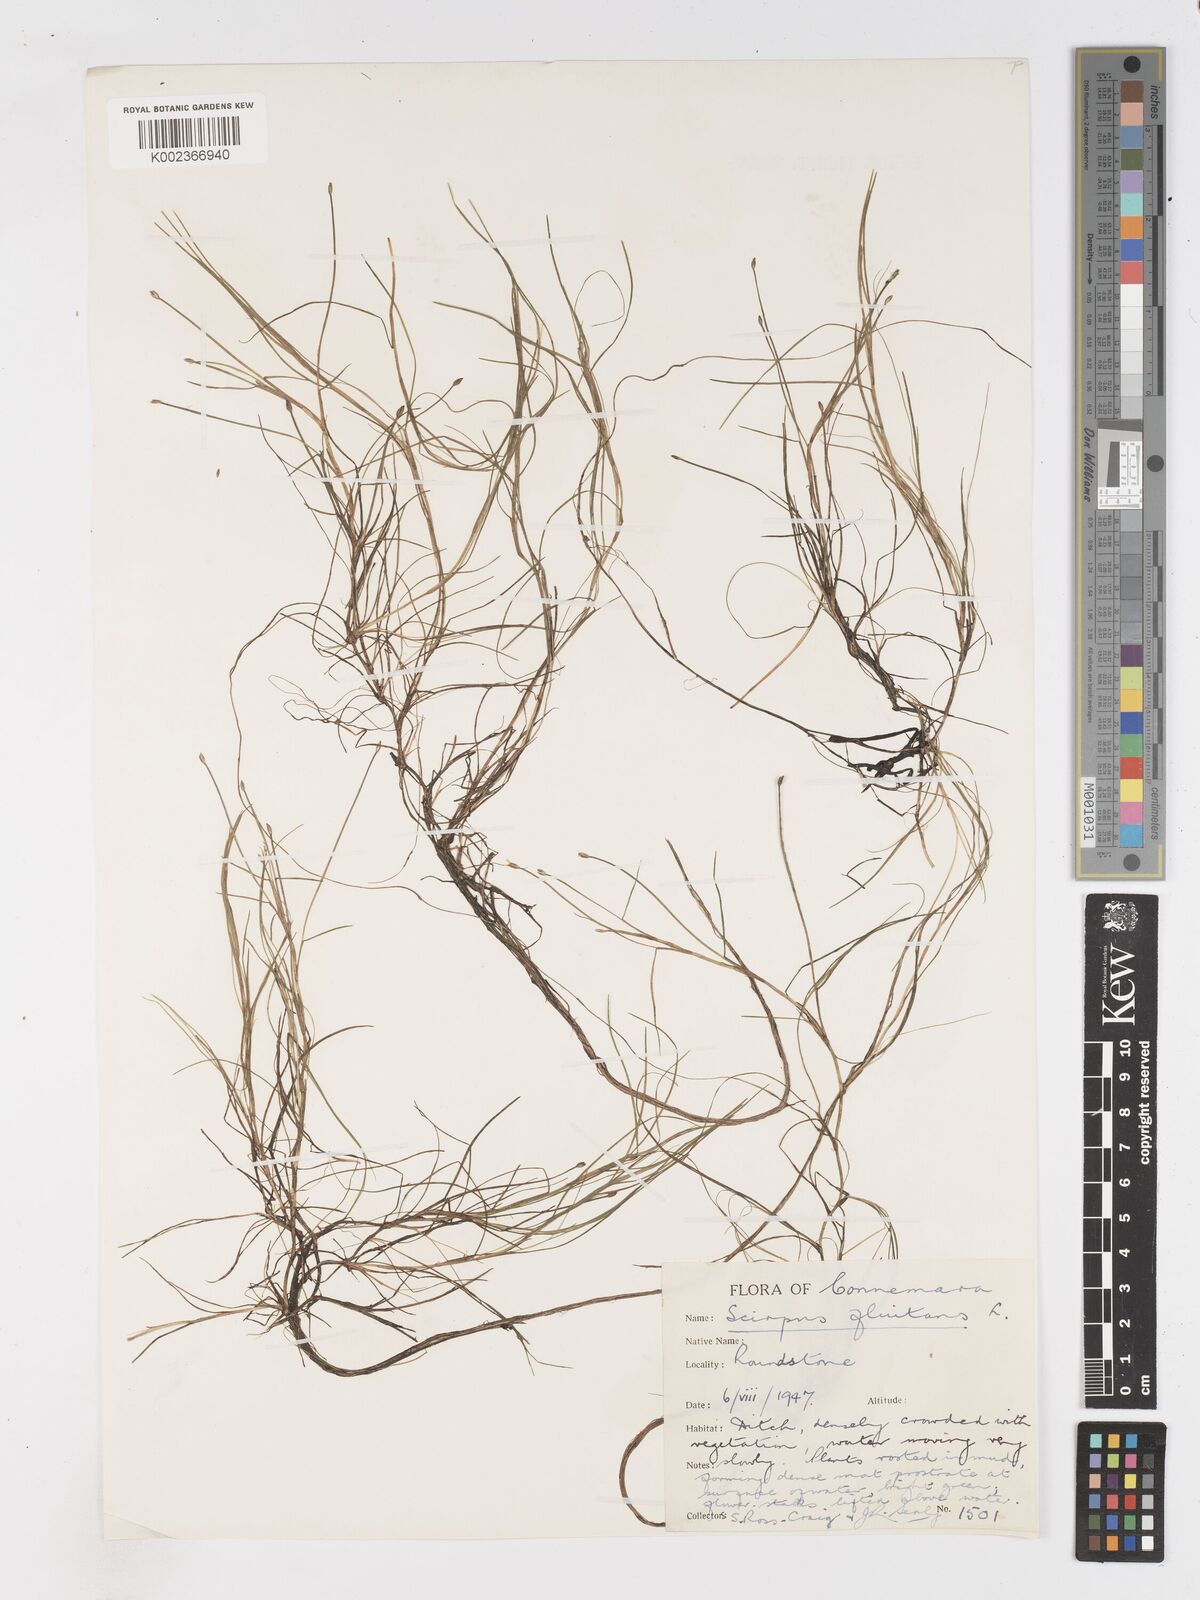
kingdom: Plantae
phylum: Tracheophyta
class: Liliopsida
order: Poales
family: Cyperaceae
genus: Isolepis
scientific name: Isolepis fluitans
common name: Floating club-rush
